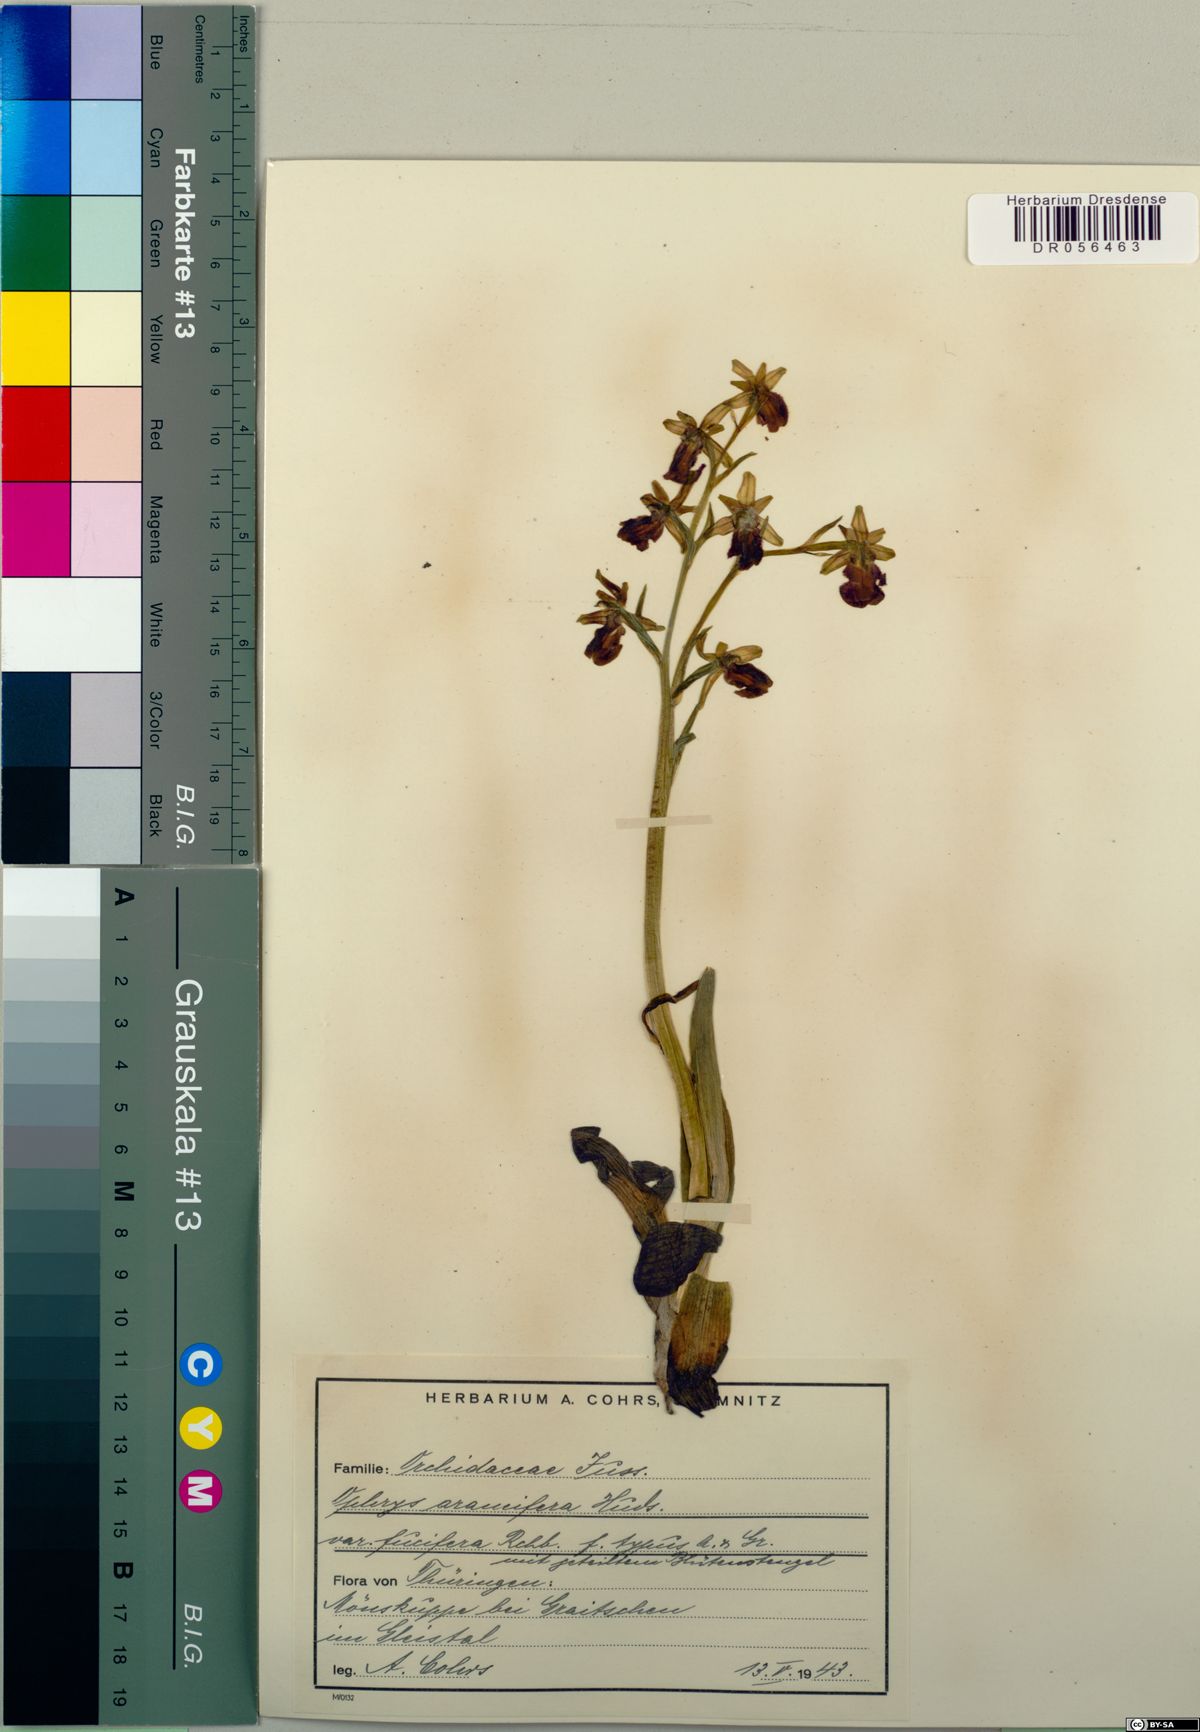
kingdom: Plantae
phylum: Tracheophyta
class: Liliopsida
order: Asparagales
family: Orchidaceae
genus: Ophrys
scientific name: Ophrys sphegodes
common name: Early spider-orchid
